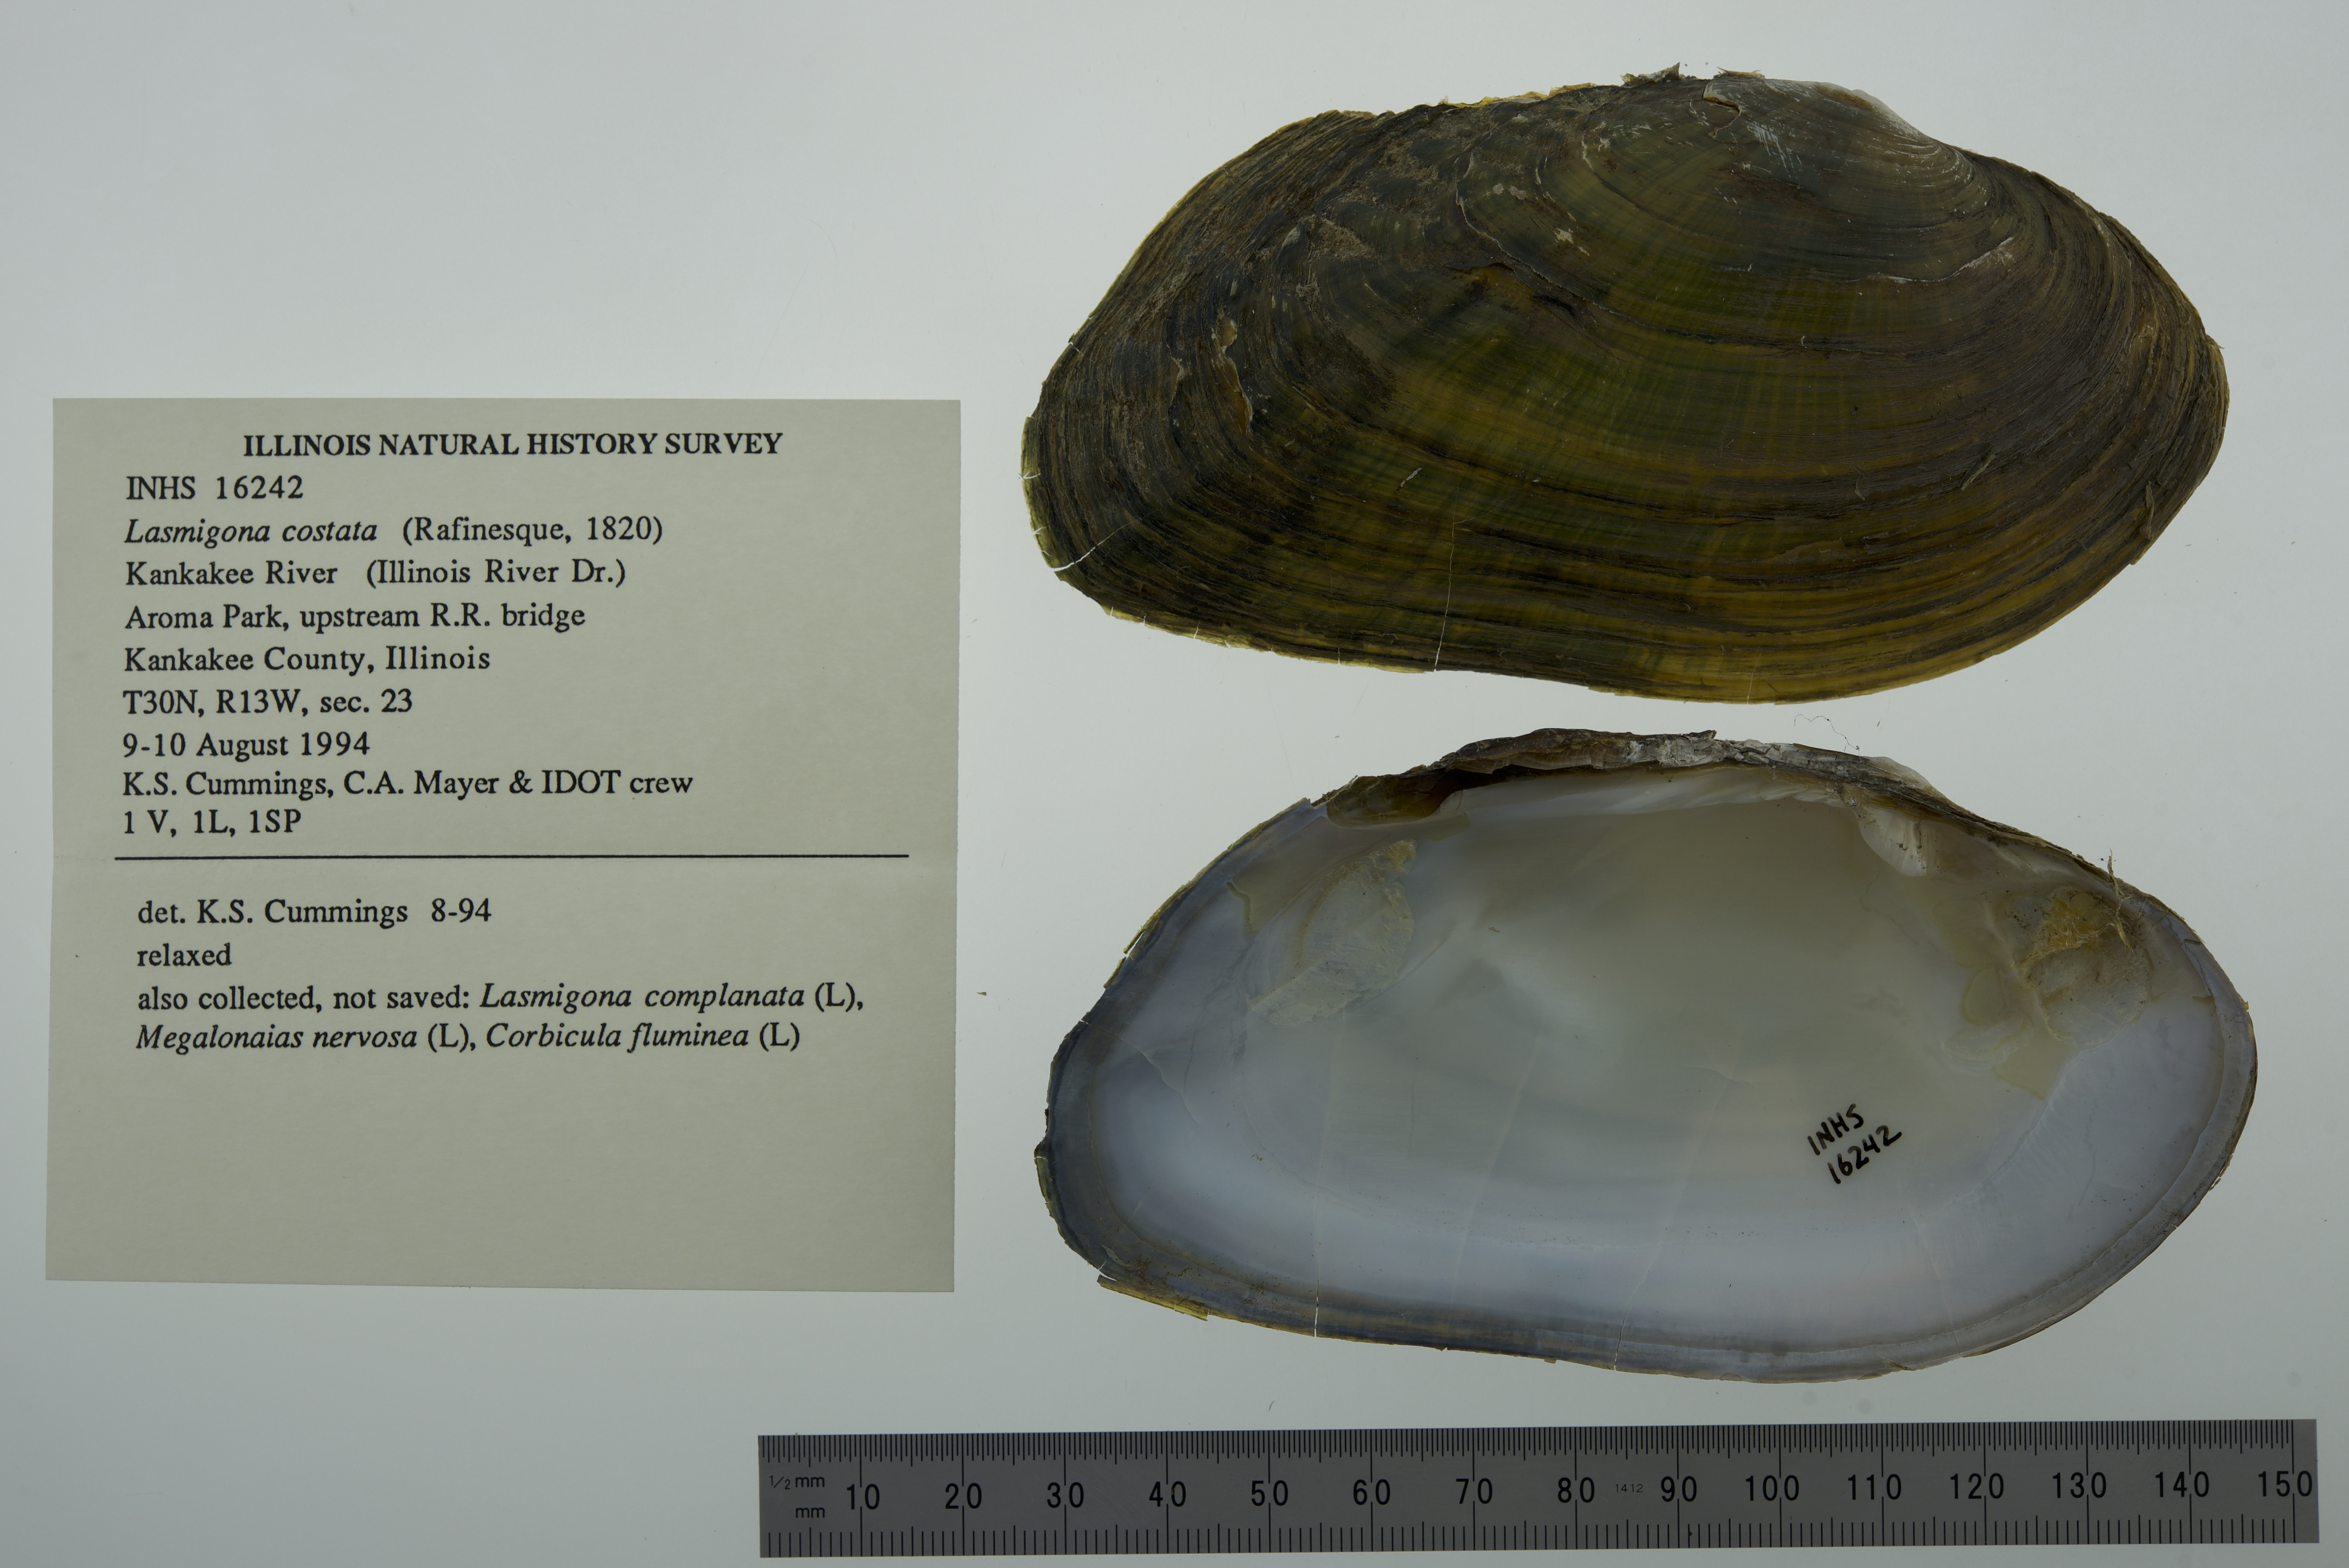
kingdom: Animalia
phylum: Mollusca
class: Bivalvia
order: Unionida
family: Unionidae
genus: Lasmigona
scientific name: Lasmigona costata
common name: Flutedshell
